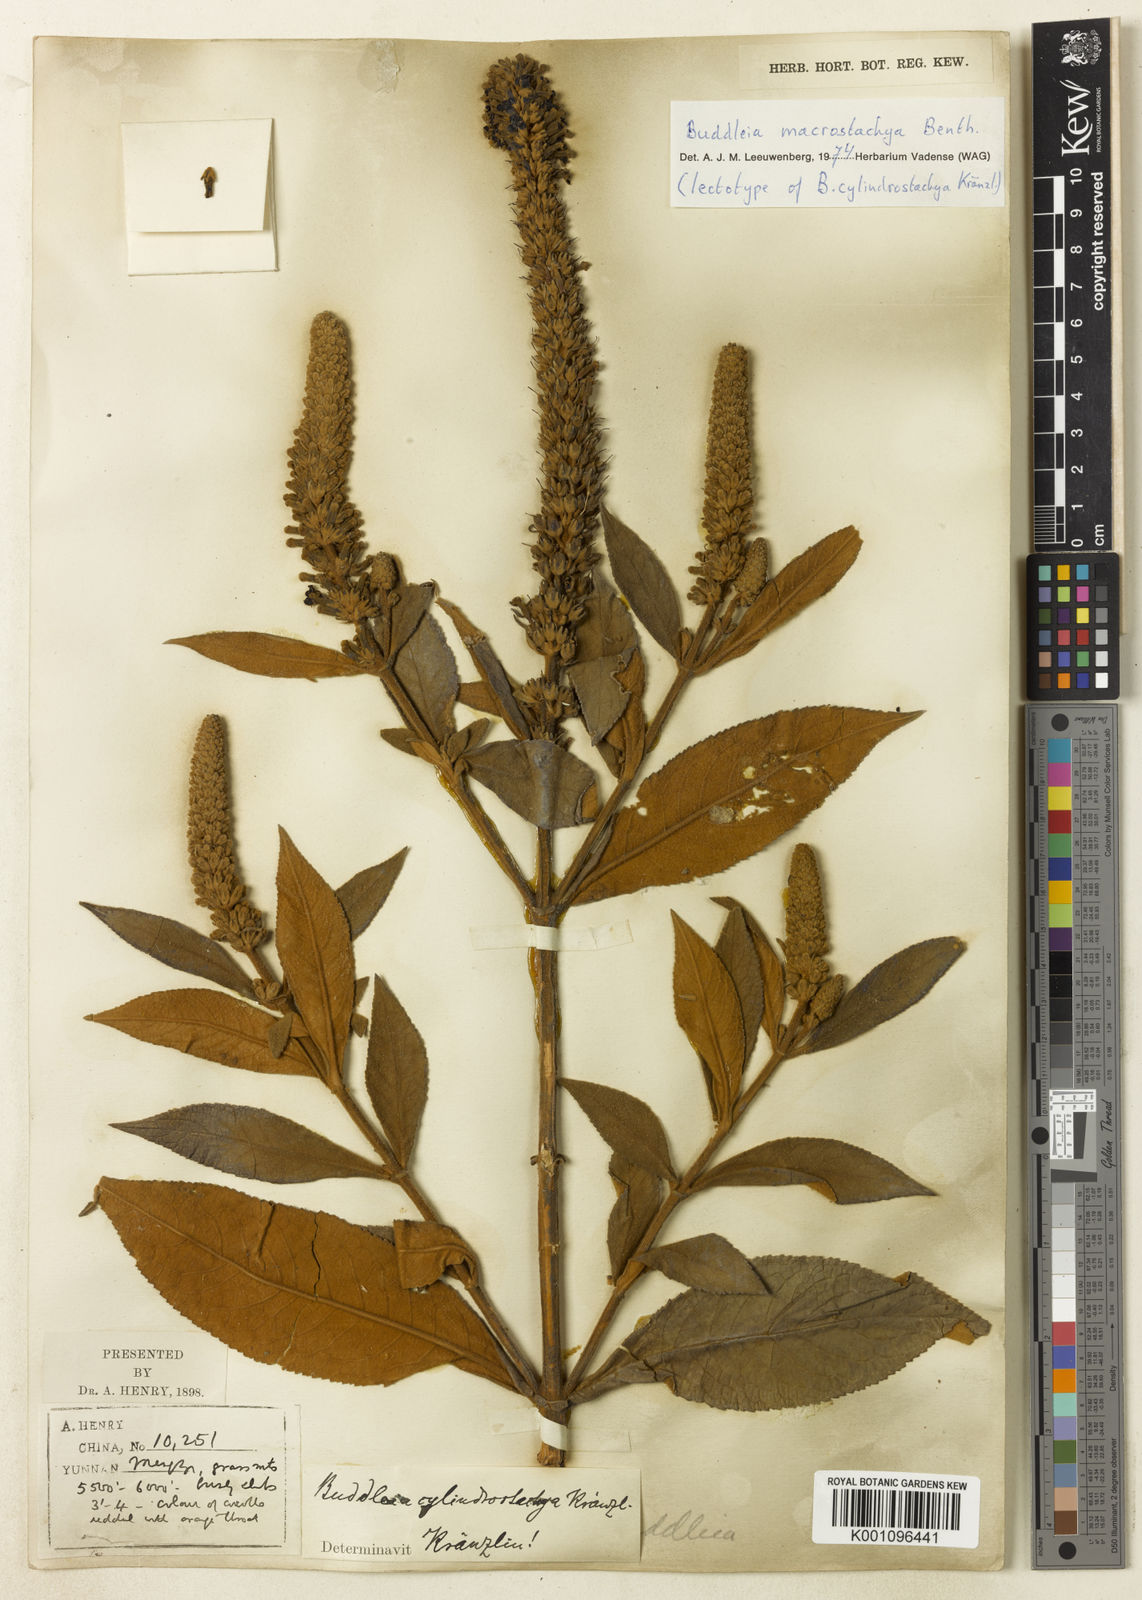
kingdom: Plantae
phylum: Tracheophyta
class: Magnoliopsida
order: Lamiales
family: Scrophulariaceae
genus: Buddleja
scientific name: Buddleja macrostachya
